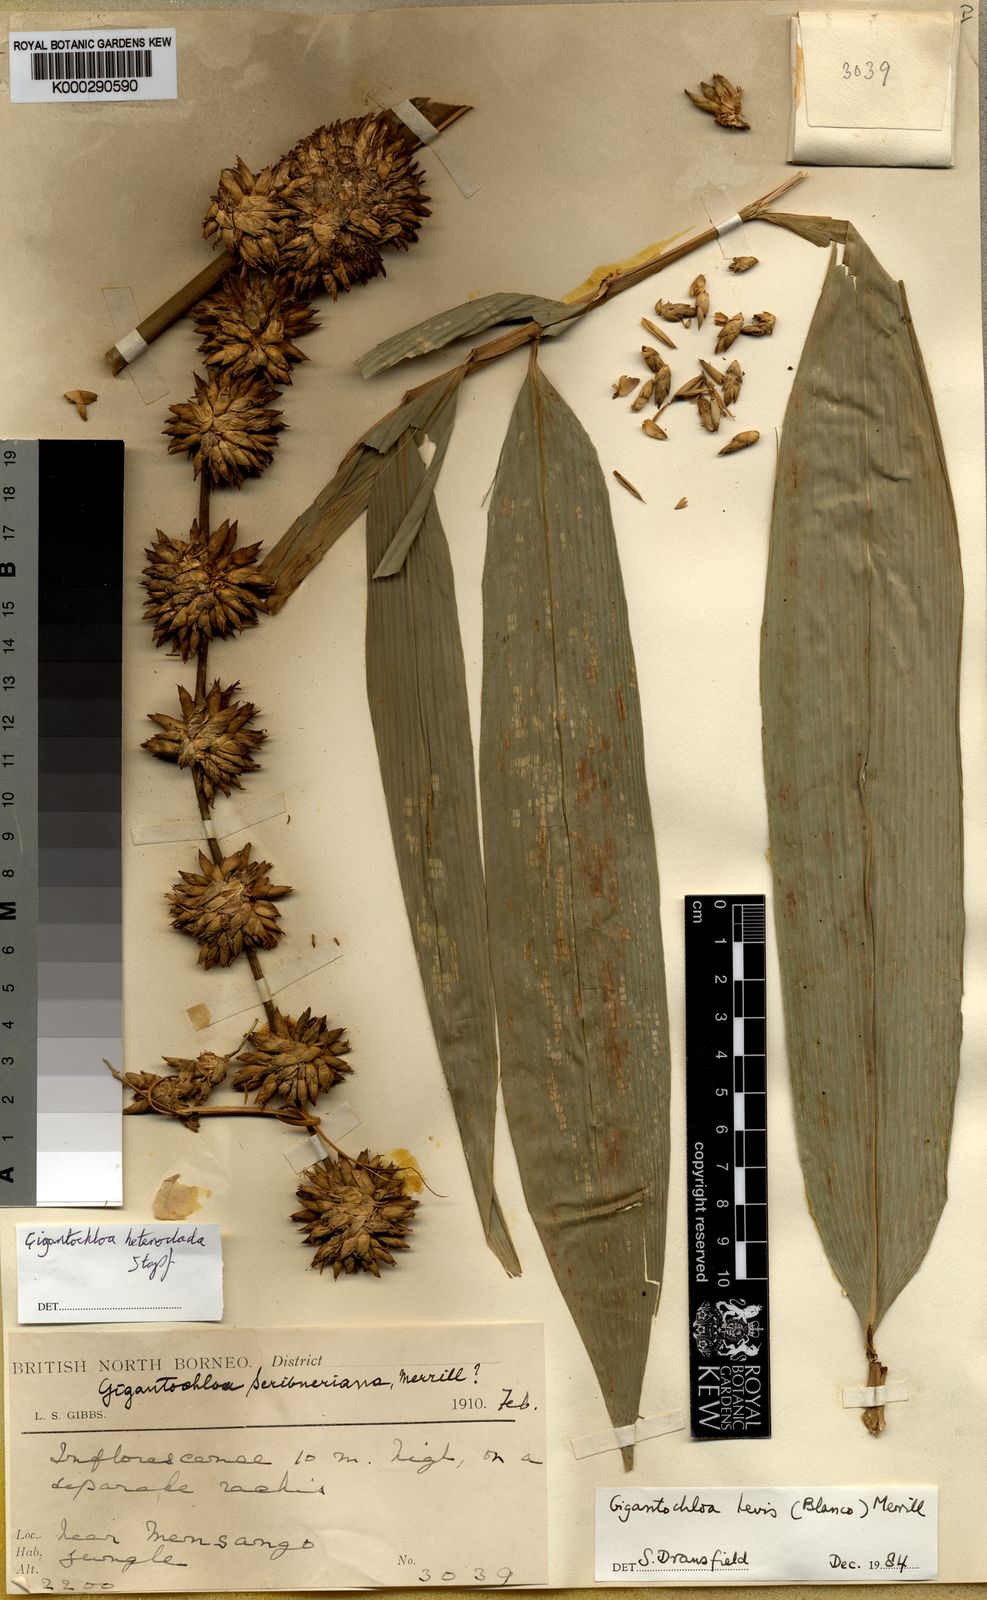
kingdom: Plantae
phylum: Tracheophyta
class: Liliopsida
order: Poales
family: Poaceae
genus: Gigantochloa
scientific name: Gigantochloa levis
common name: Smooth-shoot gigantochloa
